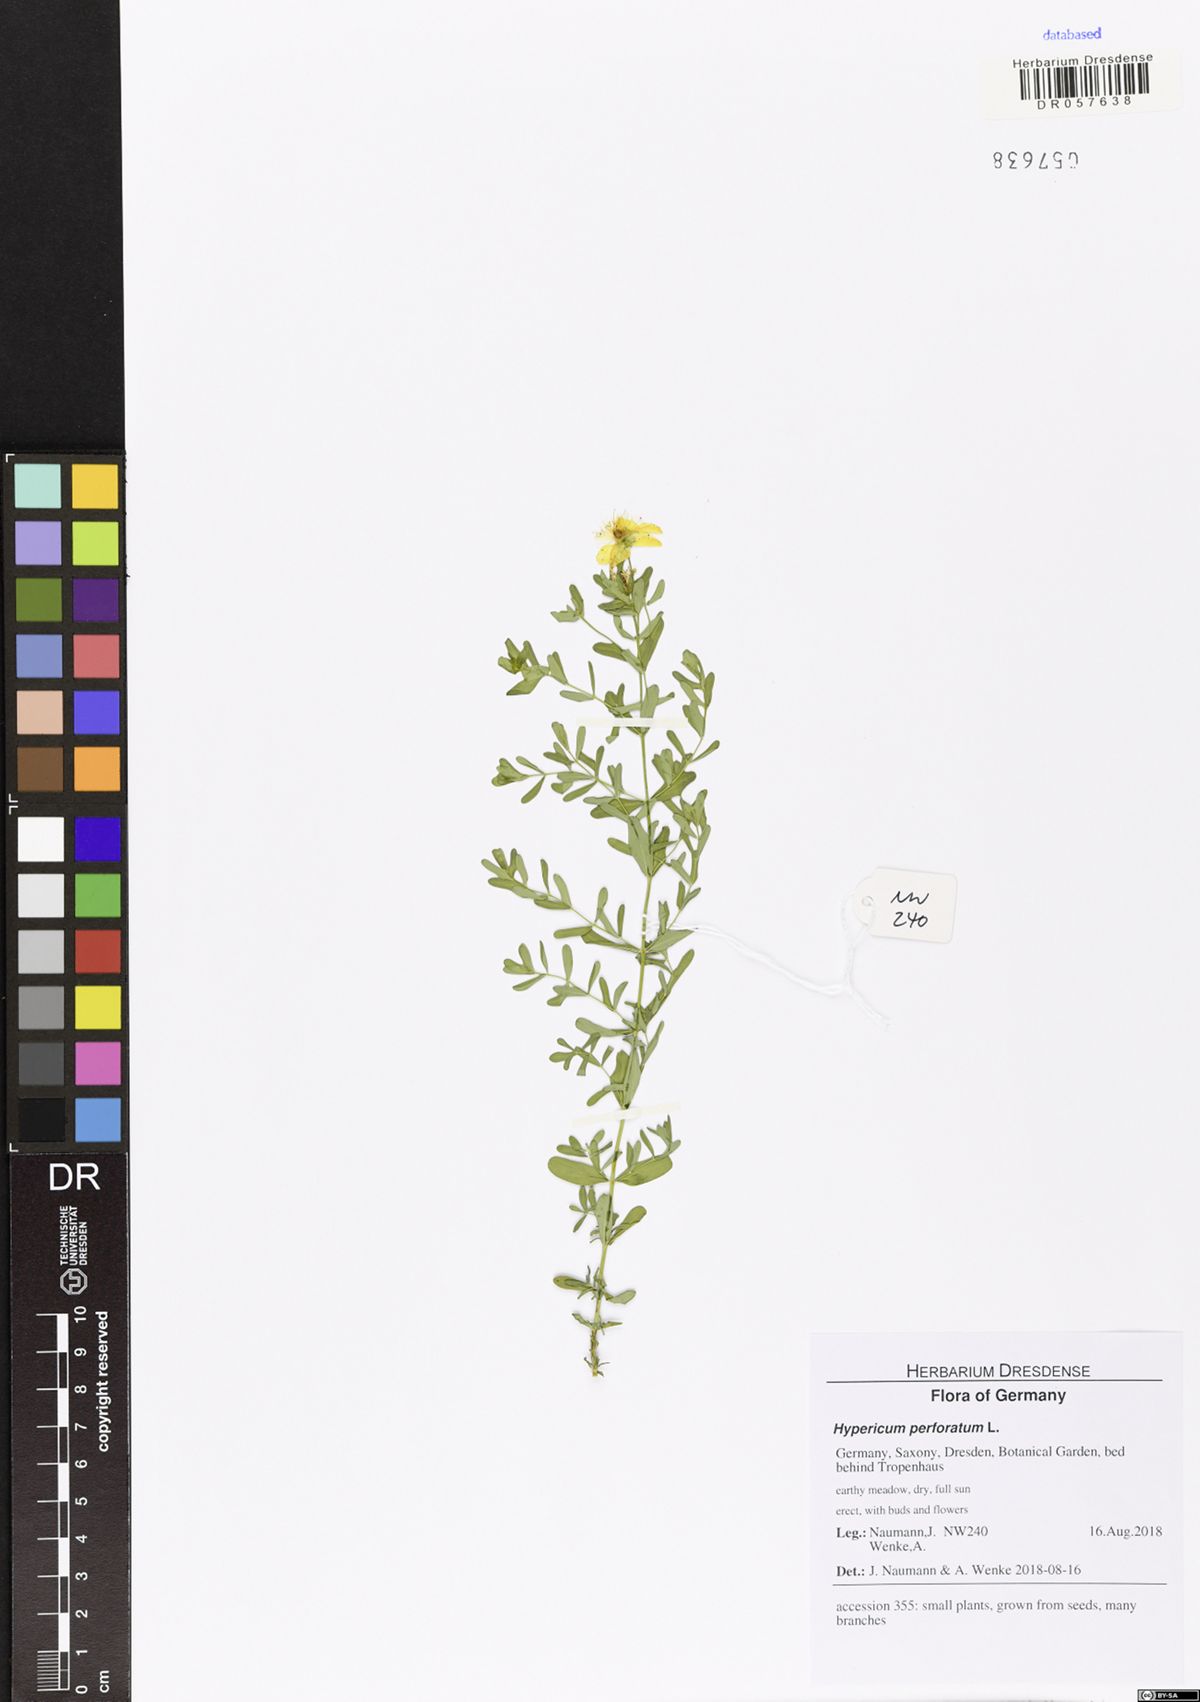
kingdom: Plantae
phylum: Tracheophyta
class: Magnoliopsida
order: Malpighiales
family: Hypericaceae
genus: Hypericum
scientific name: Hypericum perforatum
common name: Common st. johnswort
